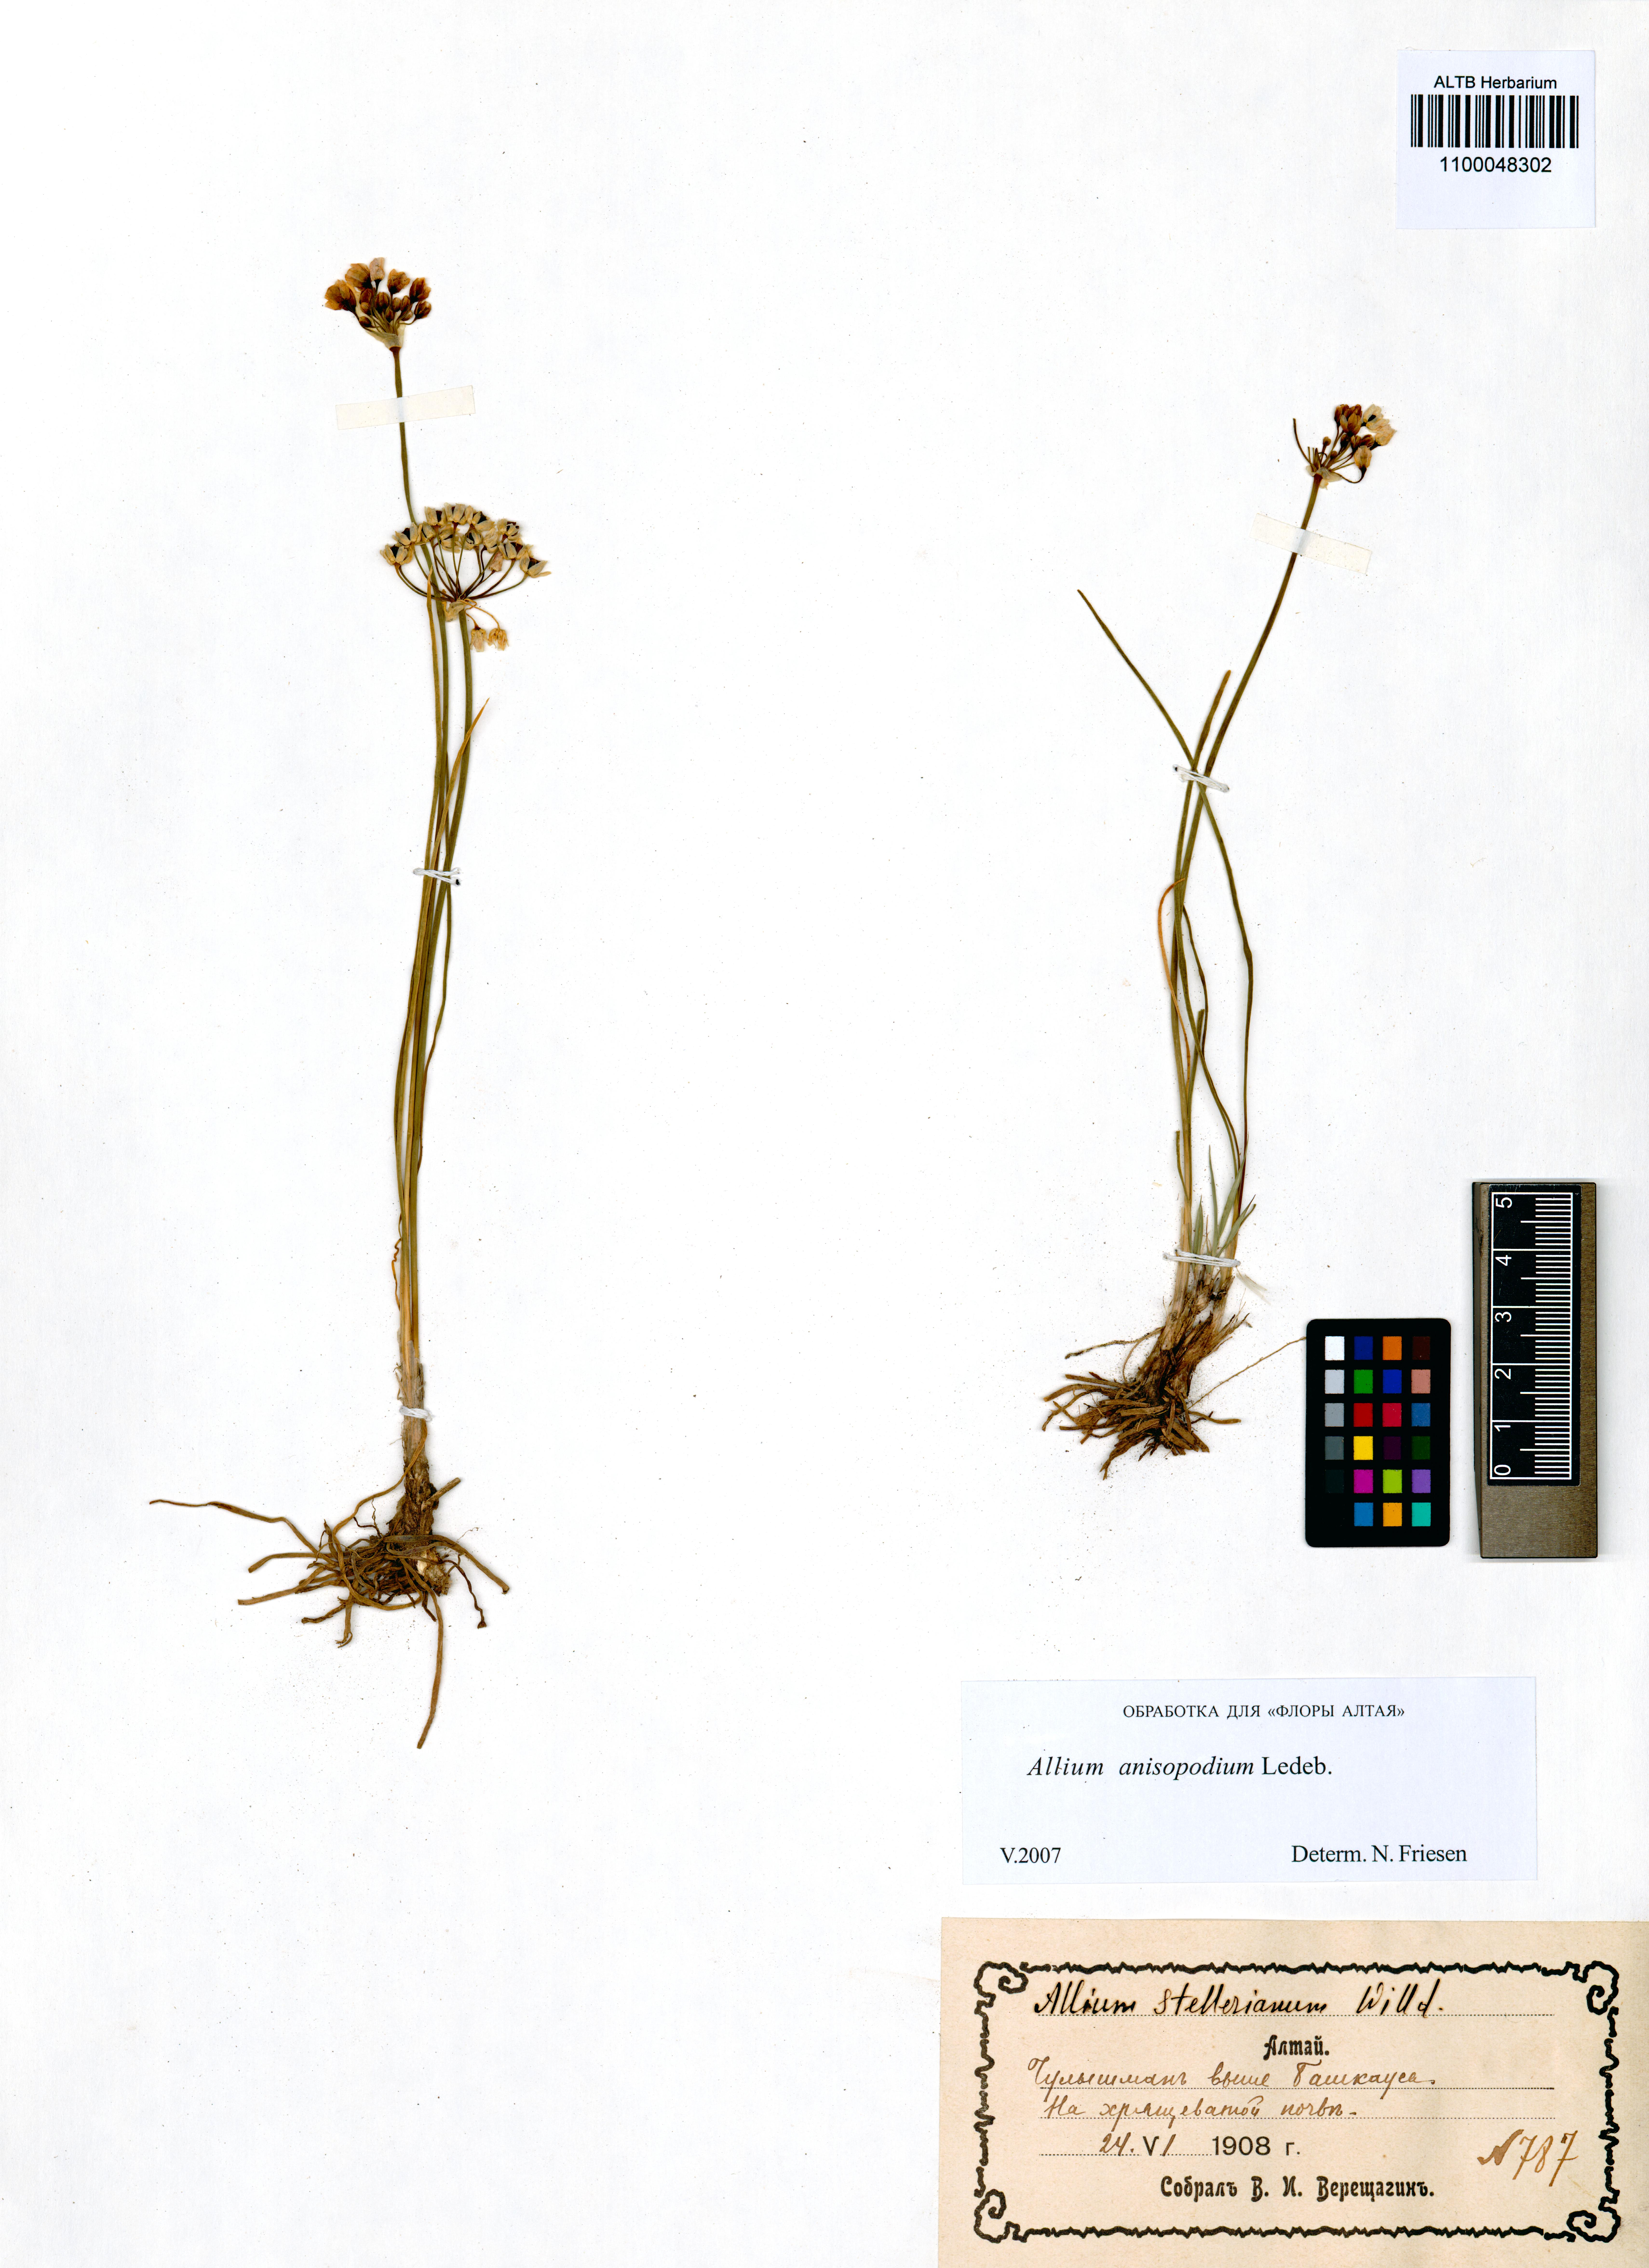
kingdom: Plantae
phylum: Tracheophyta
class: Liliopsida
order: Asparagales
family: Amaryllidaceae
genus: Allium
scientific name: Allium anisopodium
